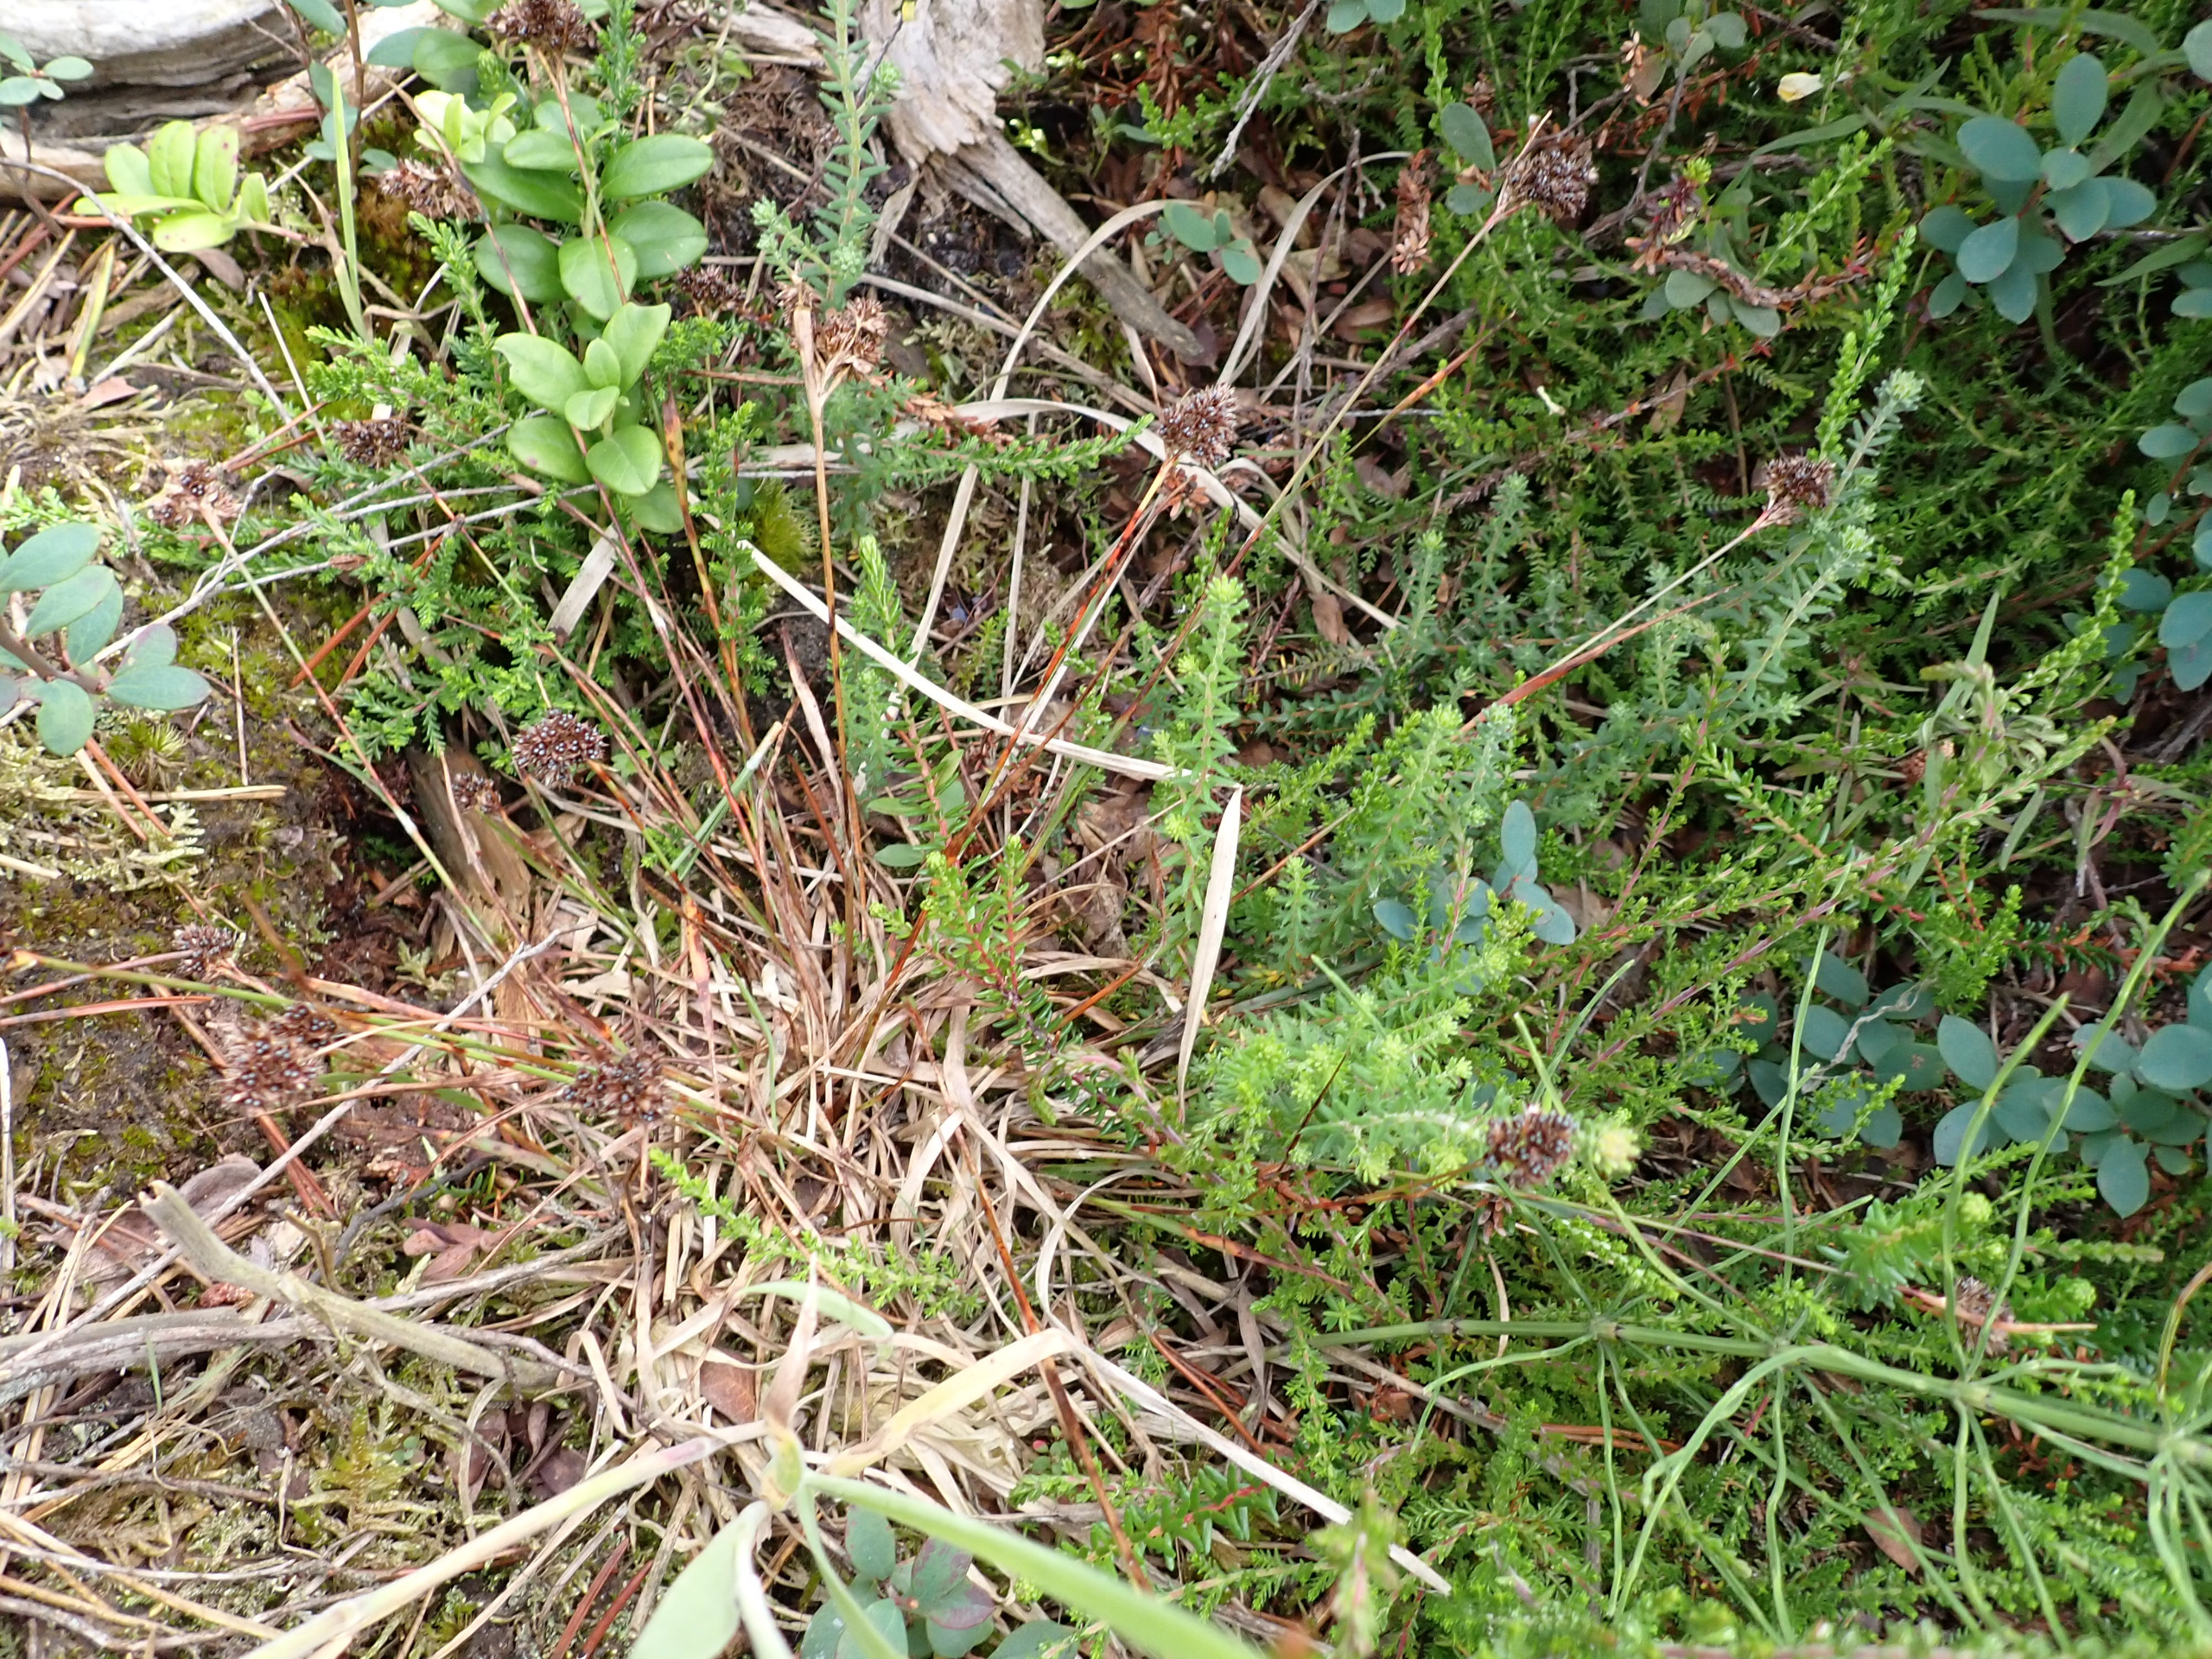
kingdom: Plantae
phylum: Tracheophyta
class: Liliopsida
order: Poales
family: Juncaceae
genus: Luzula
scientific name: Luzula congesta
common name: Hoved-frytle
